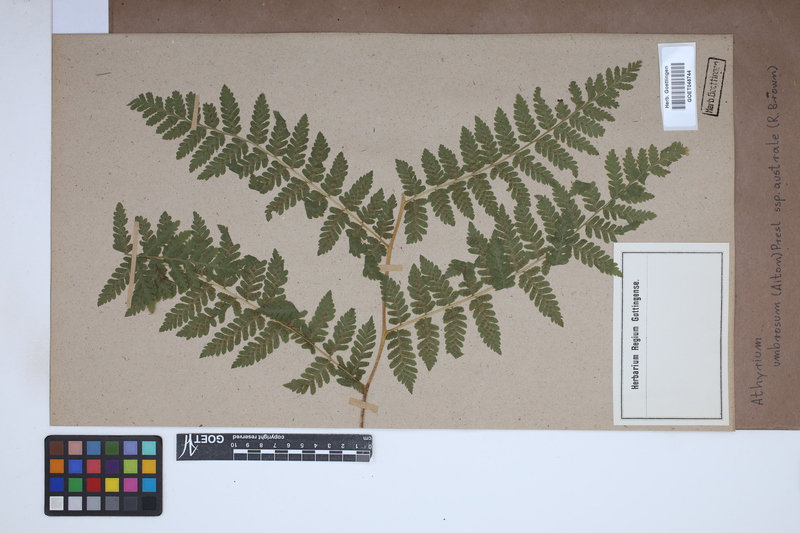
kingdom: Plantae
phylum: Tracheophyta
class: Polypodiopsida
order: Polypodiales
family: Athyriaceae
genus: Diplazium
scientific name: Diplazium australe
